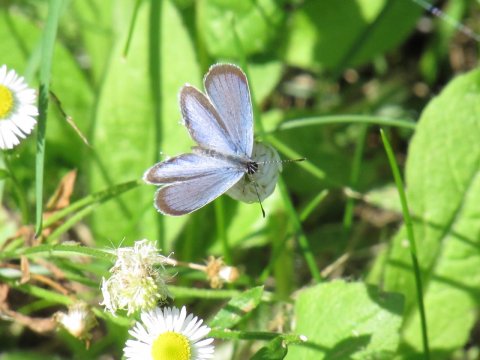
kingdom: Animalia
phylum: Arthropoda
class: Insecta
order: Lepidoptera
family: Lycaenidae
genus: Elkalyce
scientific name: Elkalyce comyntas
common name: Eastern Tailed-Blue
